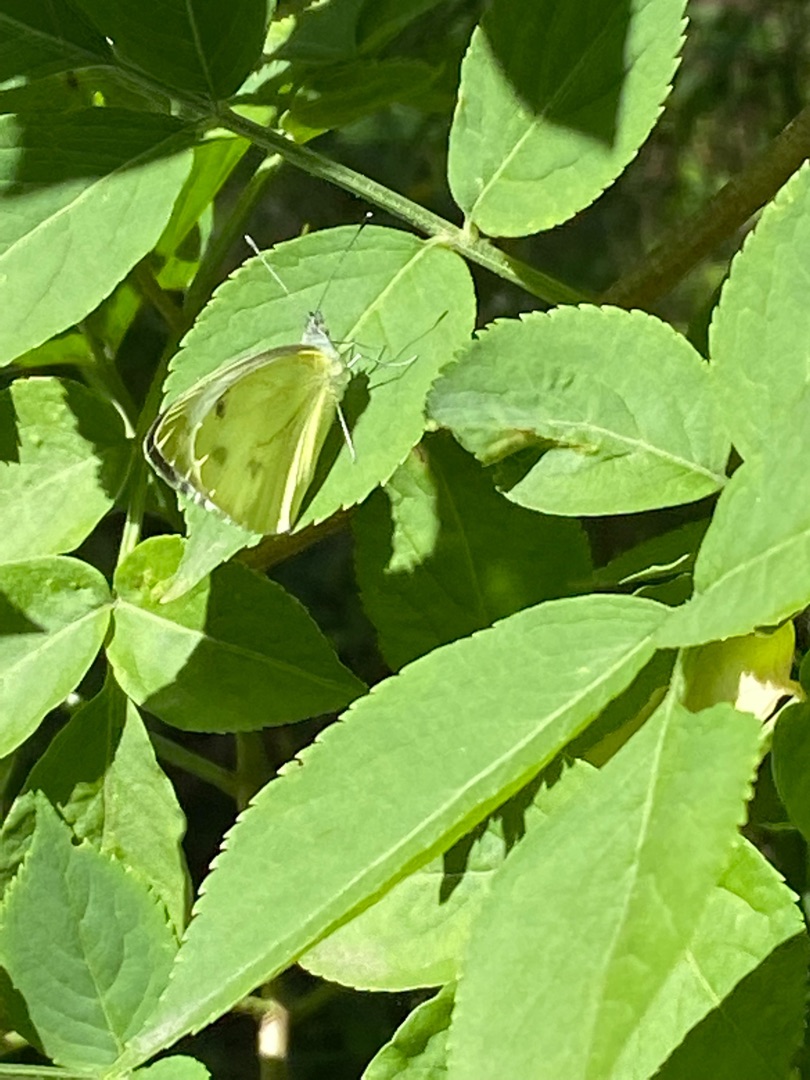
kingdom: Animalia
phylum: Arthropoda
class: Insecta
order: Lepidoptera
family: Pieridae
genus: Pieris
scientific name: Pieris napi
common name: Grønåret kålsommerfugl
